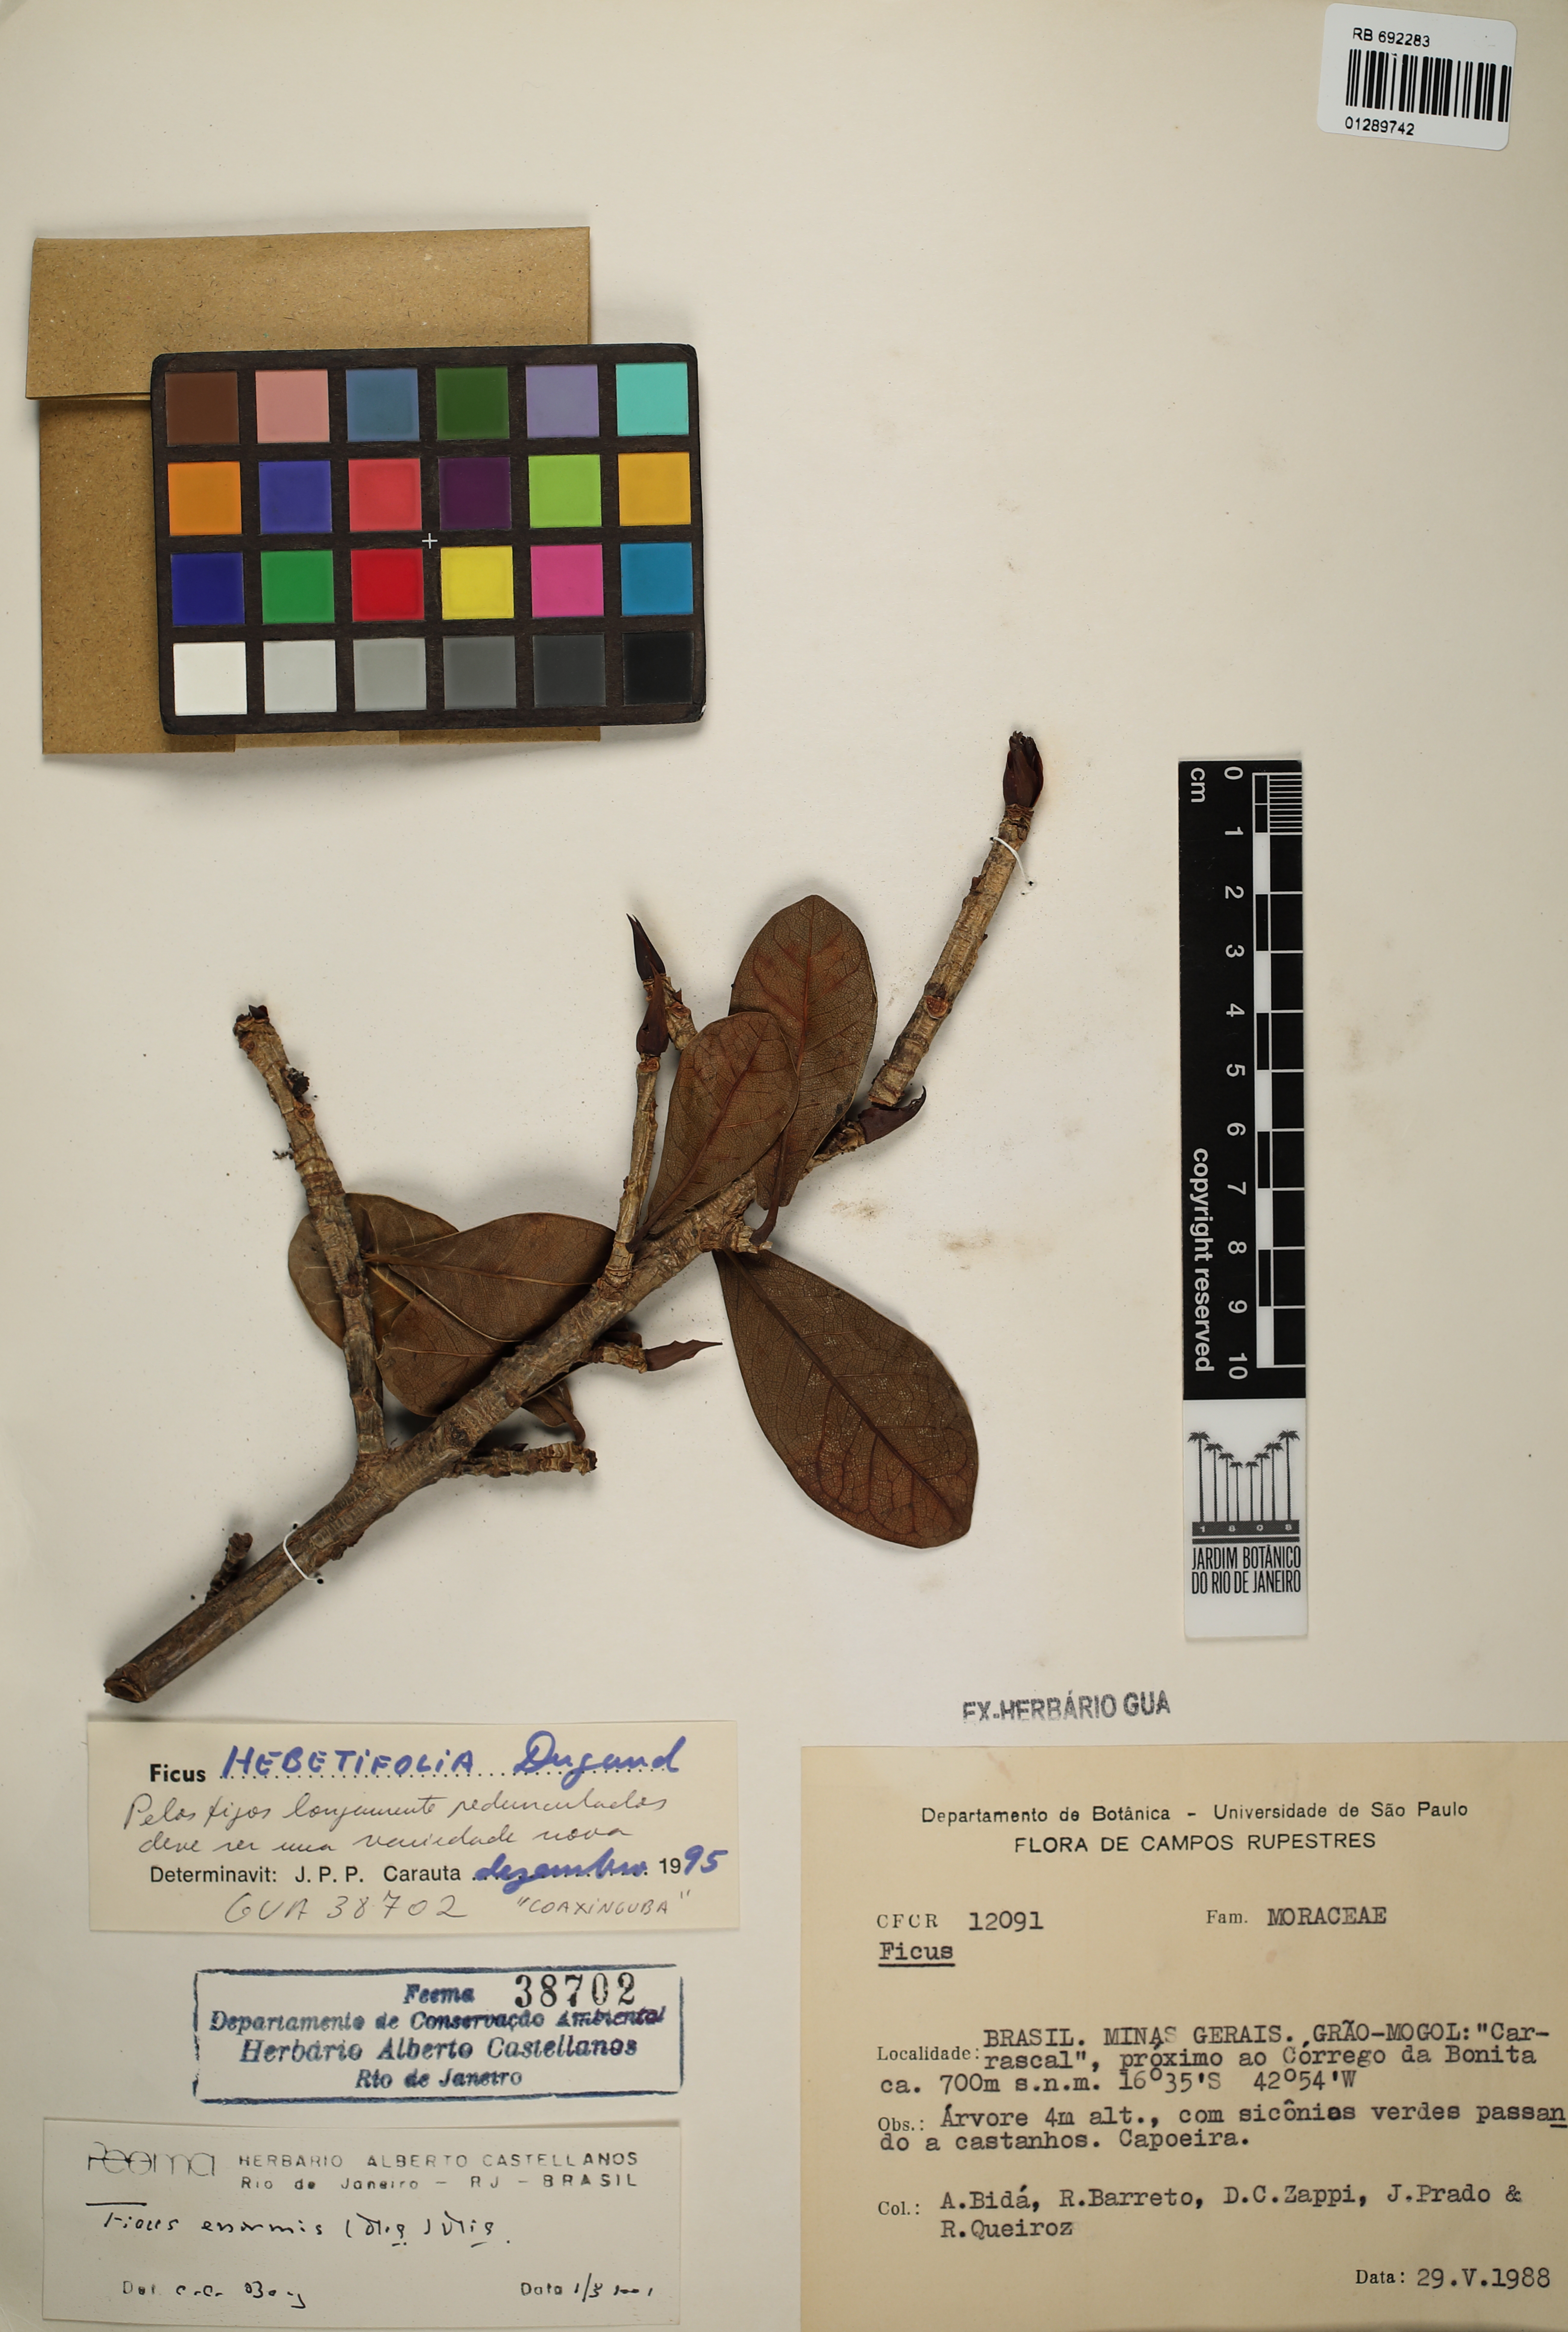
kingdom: Plantae
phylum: Tracheophyta
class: Magnoliopsida
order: Rosales
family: Moraceae
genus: Ficus
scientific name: Ficus enormis
